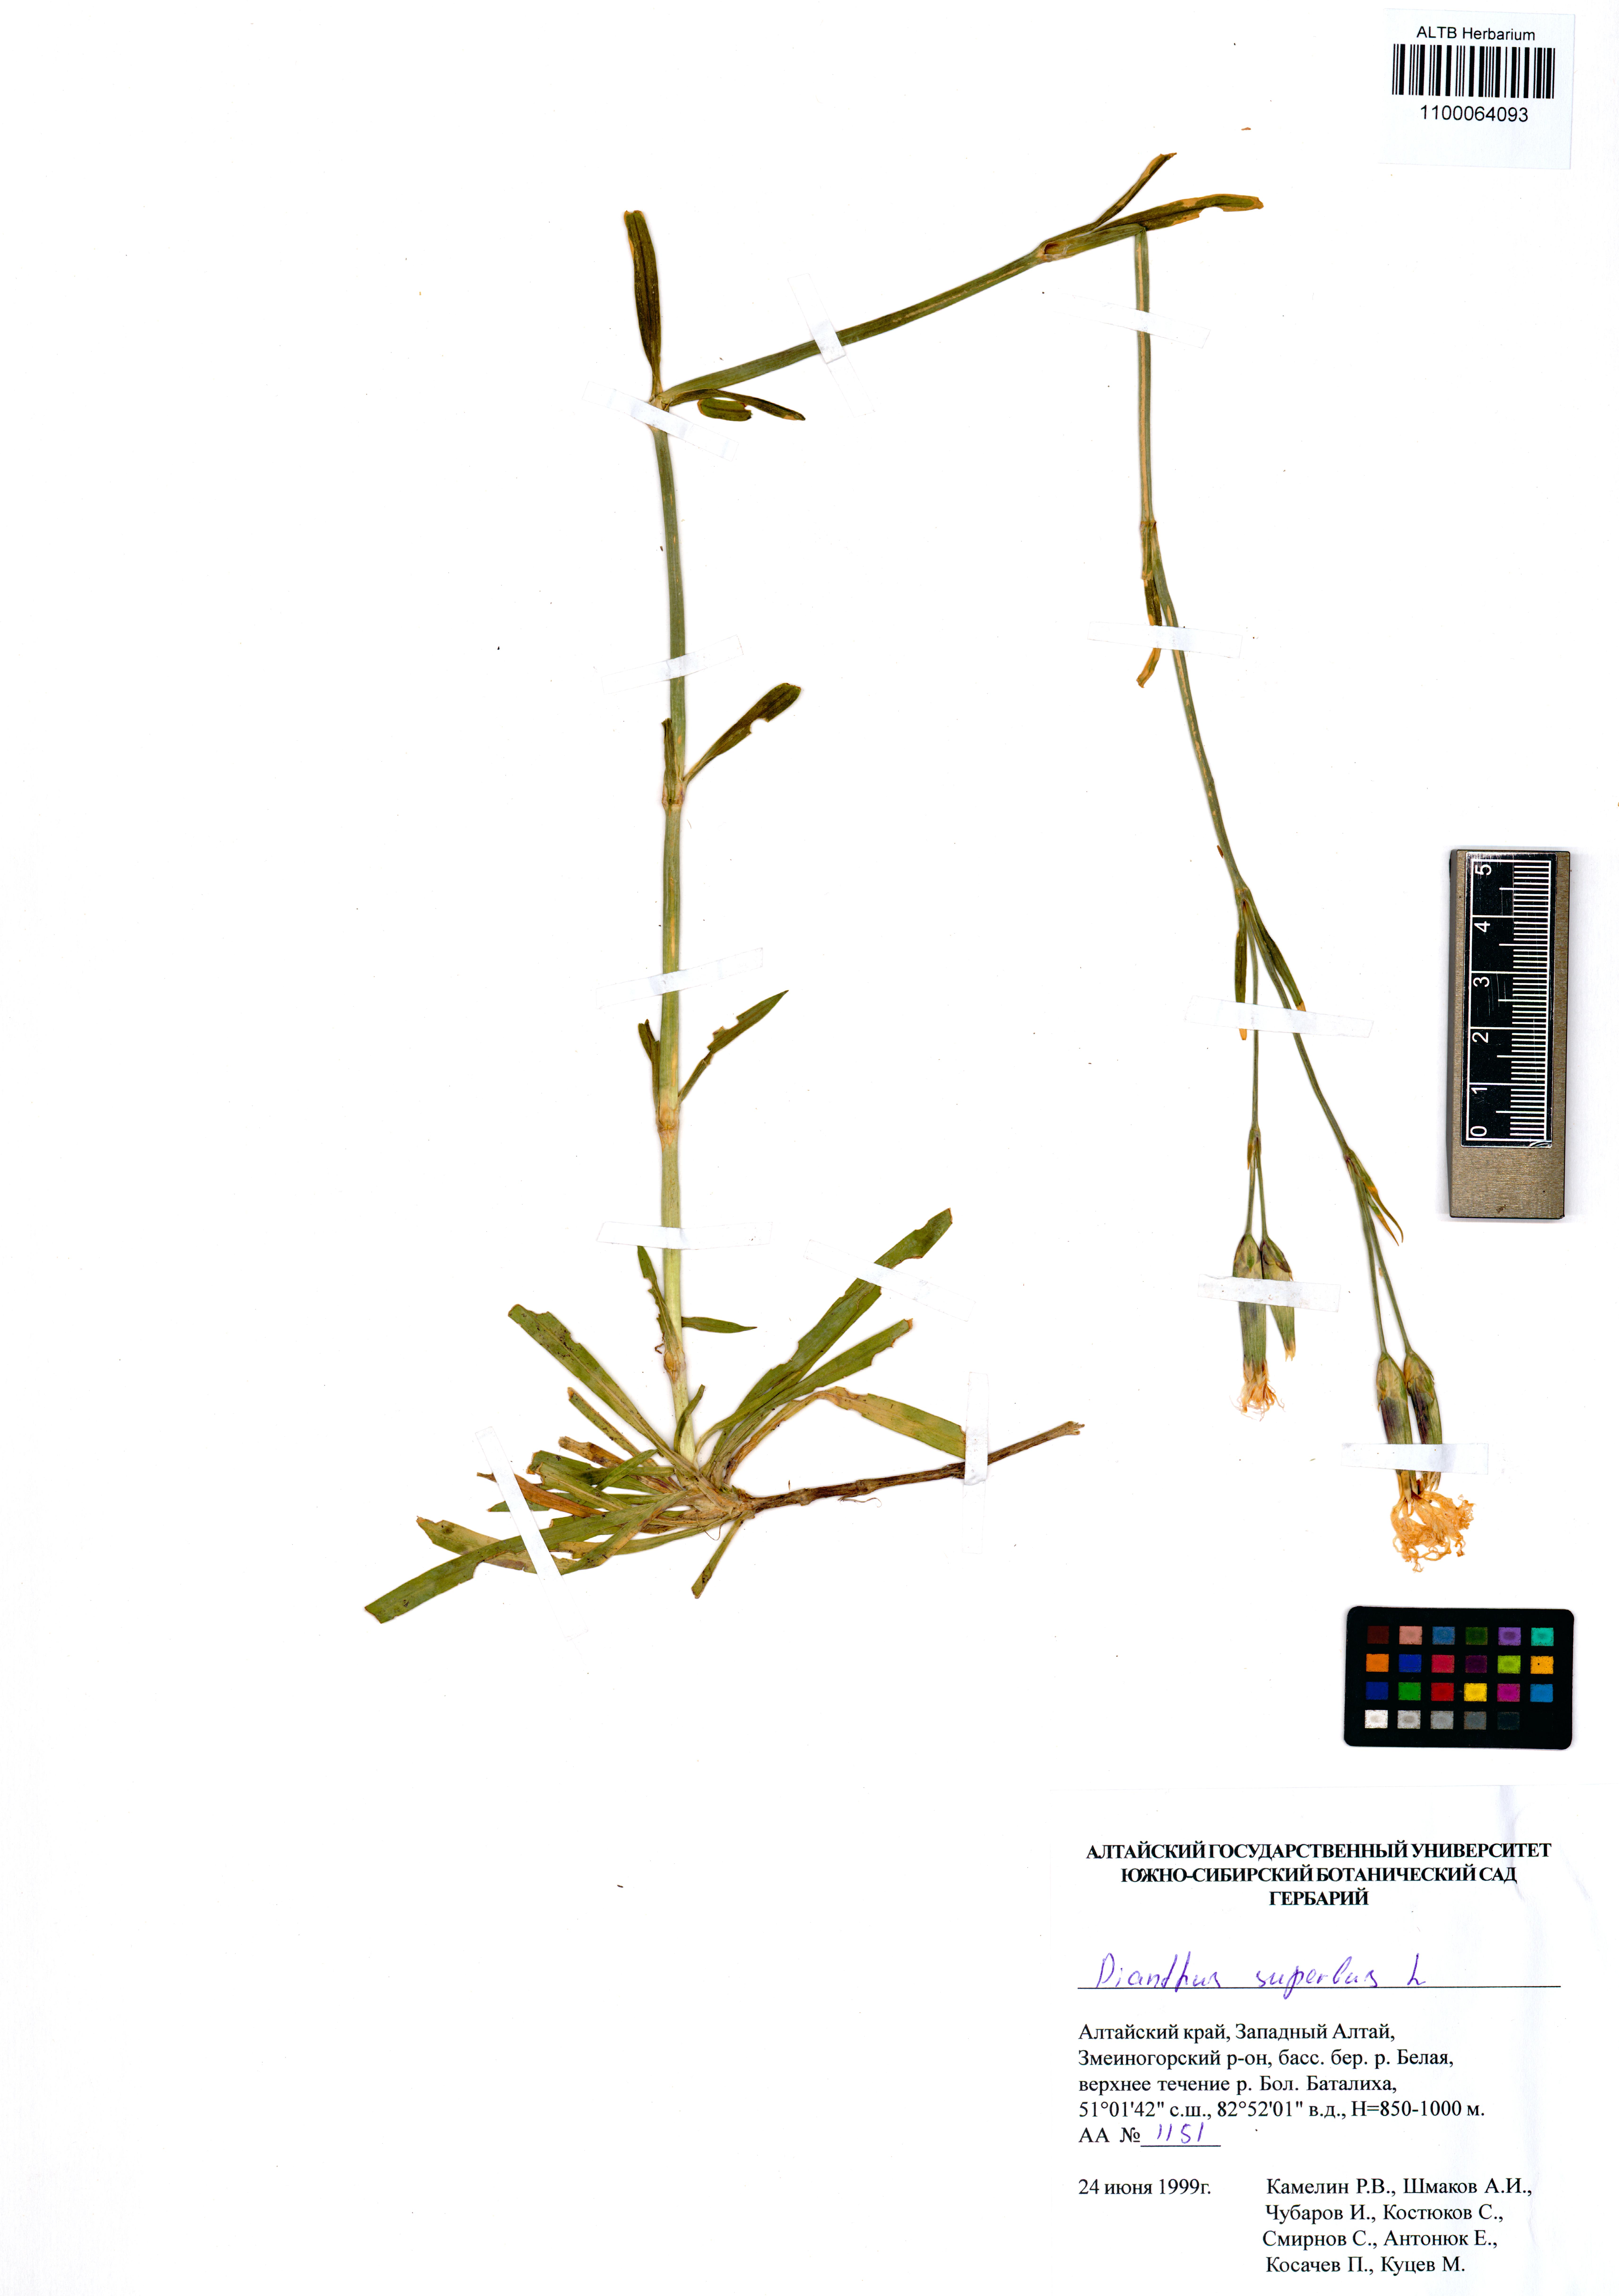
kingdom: Plantae
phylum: Tracheophyta
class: Magnoliopsida
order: Caryophyllales
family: Caryophyllaceae
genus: Dianthus
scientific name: Dianthus superbus
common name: Fringed pink
